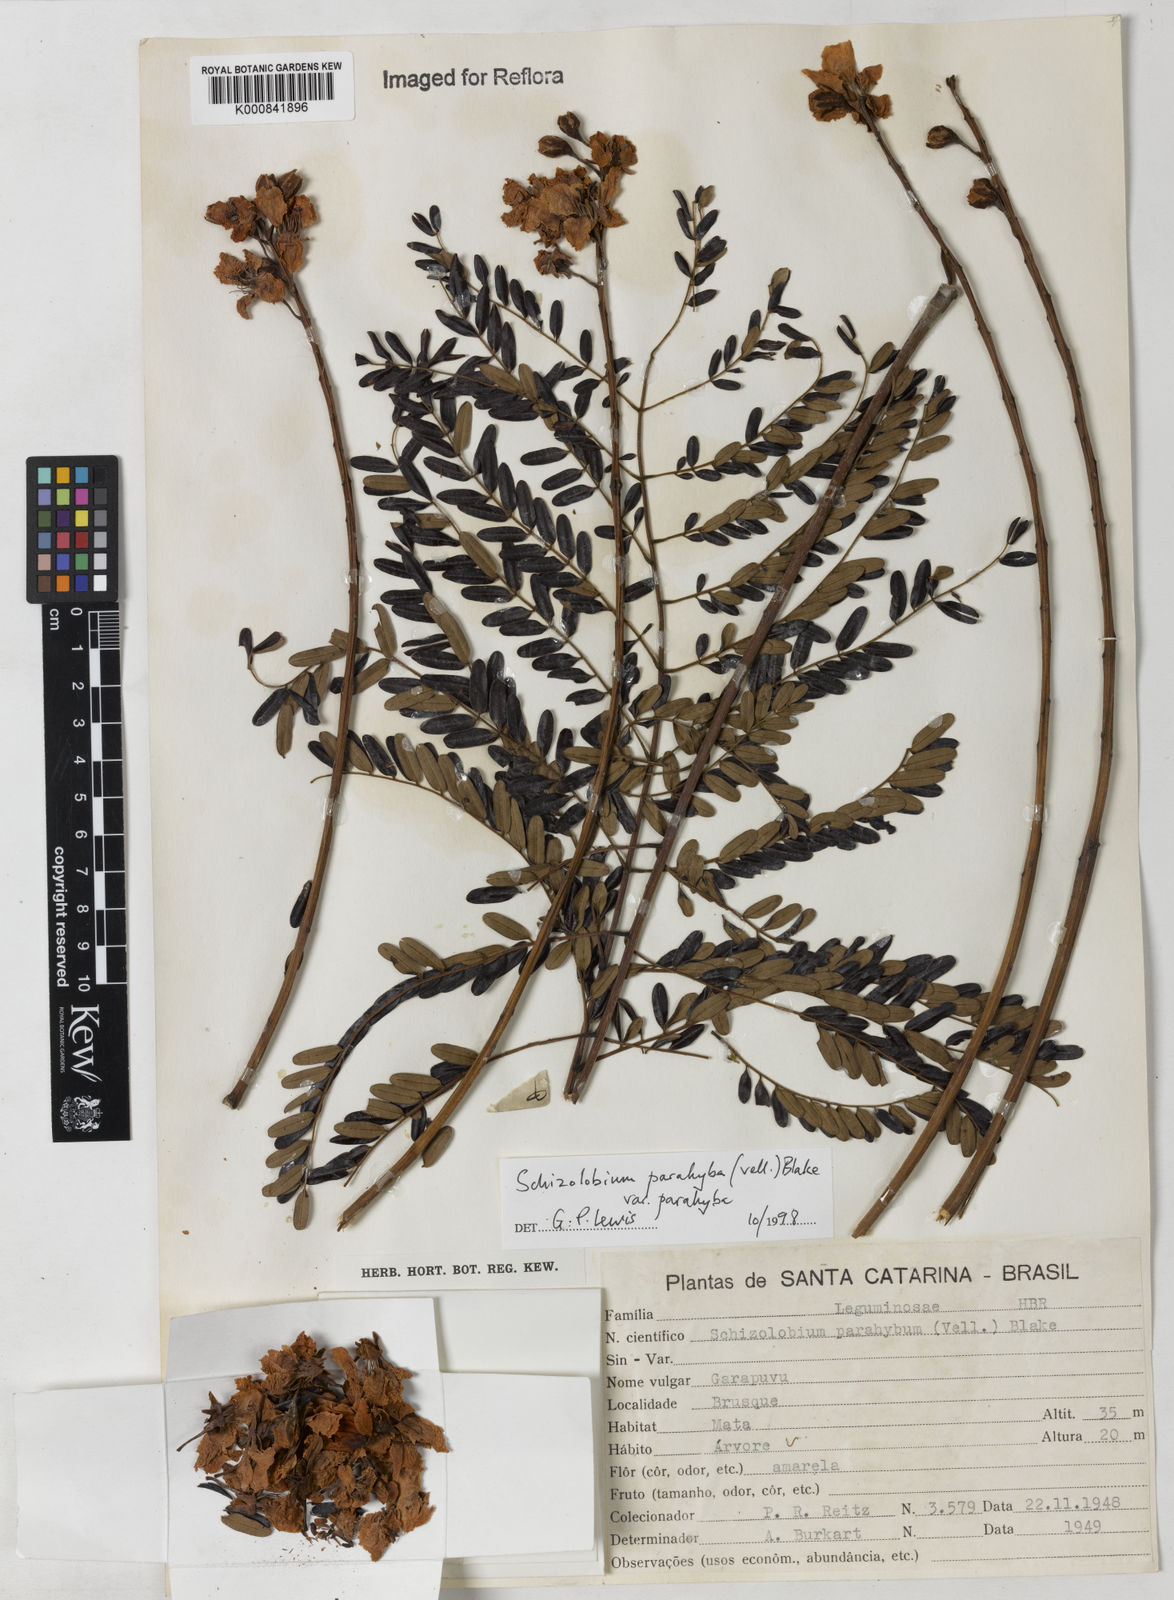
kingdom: Plantae
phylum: Tracheophyta
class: Magnoliopsida
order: Fabales
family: Fabaceae
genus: Schizolobium
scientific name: Schizolobium parahyba
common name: Brazilian firetree
